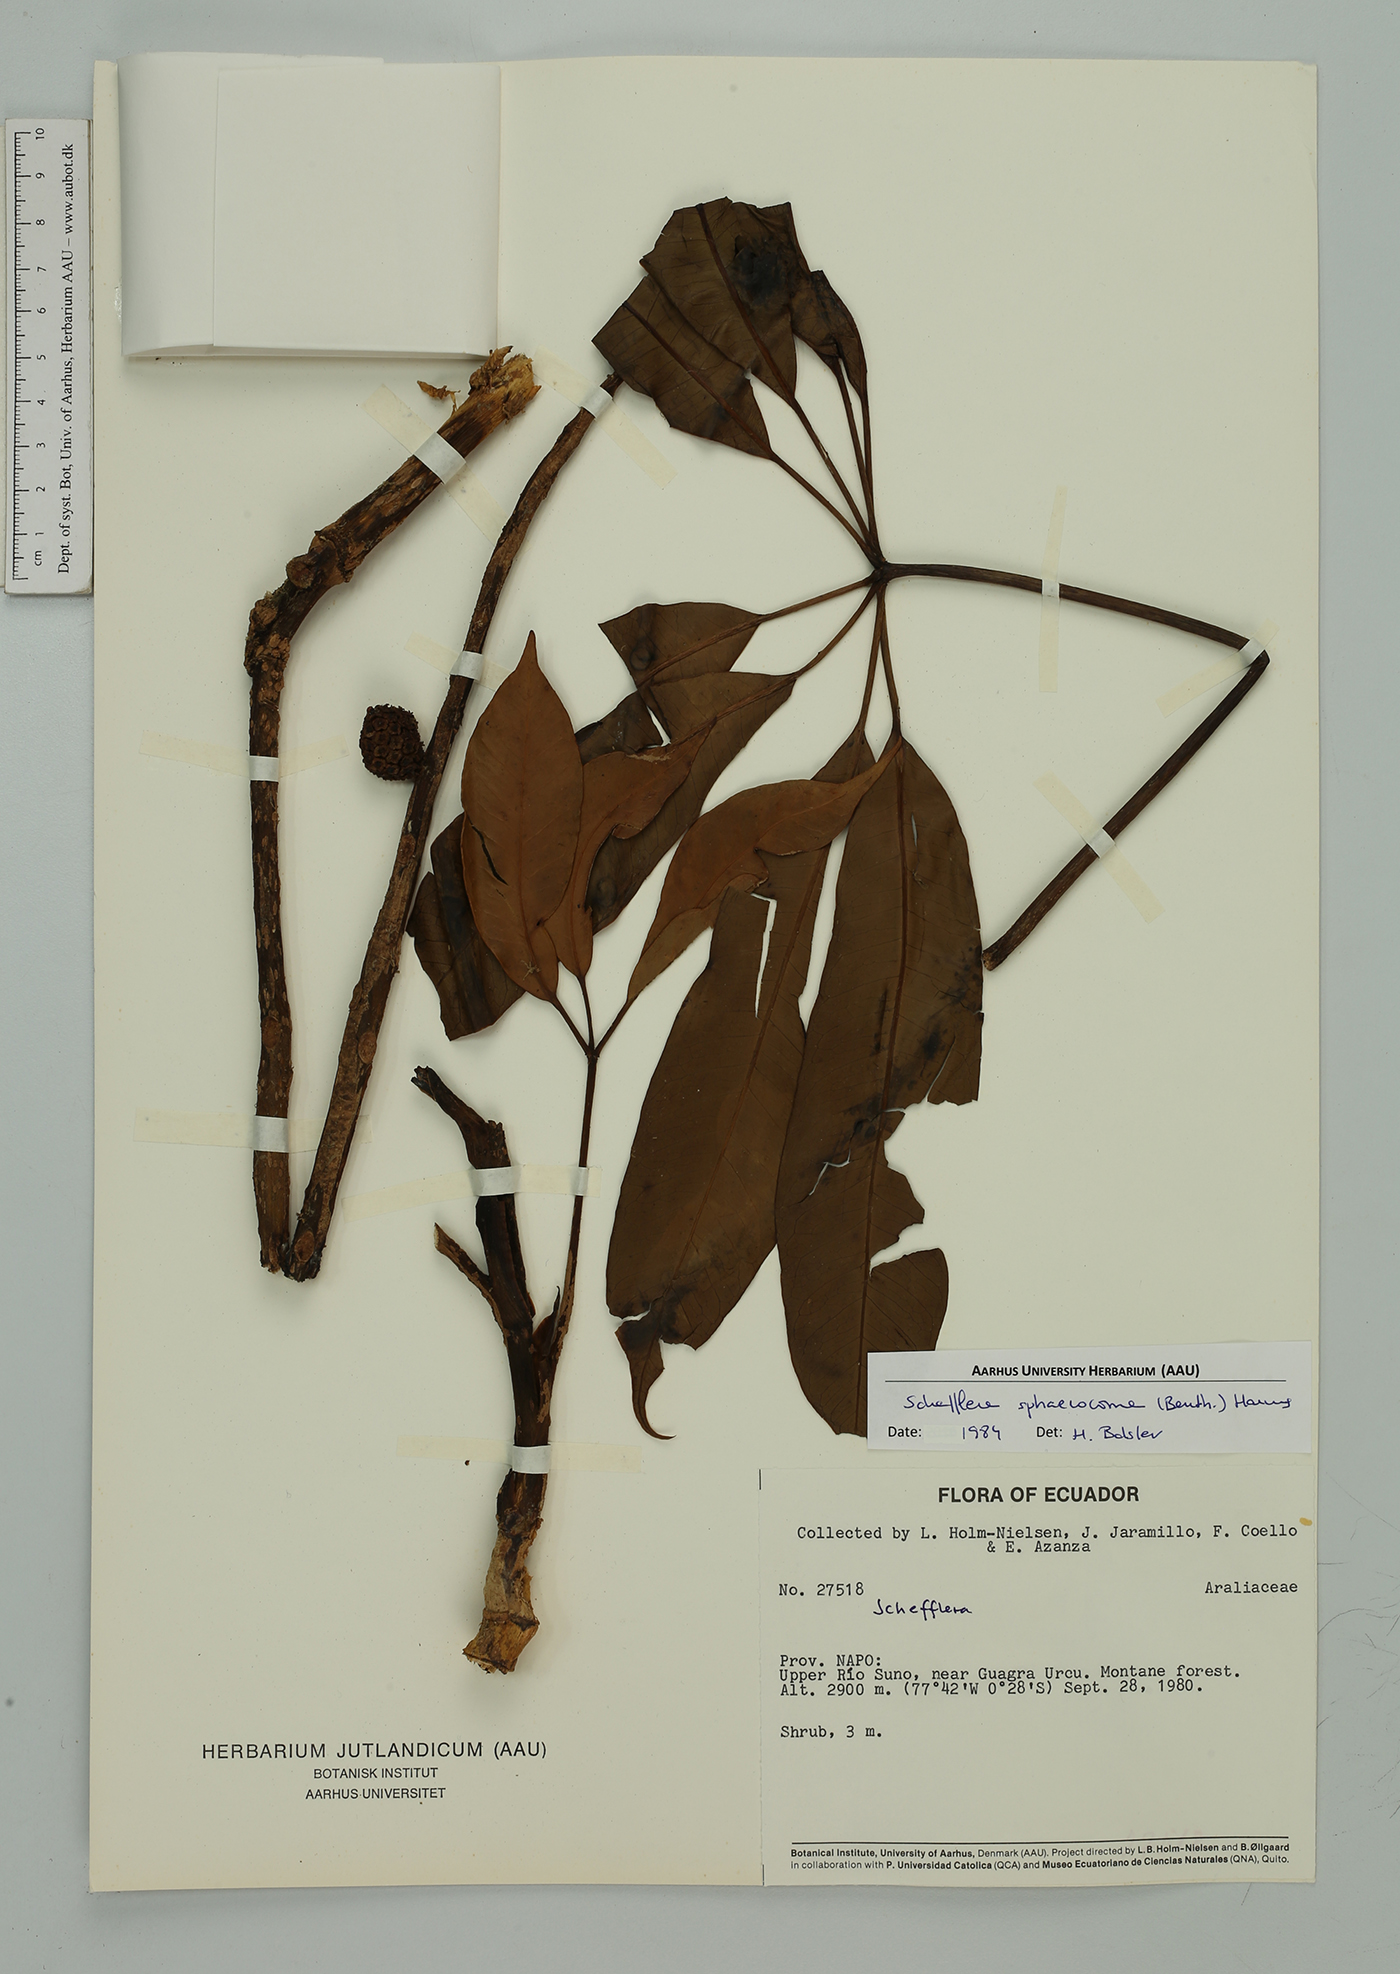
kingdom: Plantae
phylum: Tracheophyta
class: Magnoliopsida
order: Apiales
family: Araliaceae
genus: Sciodaphyllum
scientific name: Sciodaphyllum sphaerocoma
